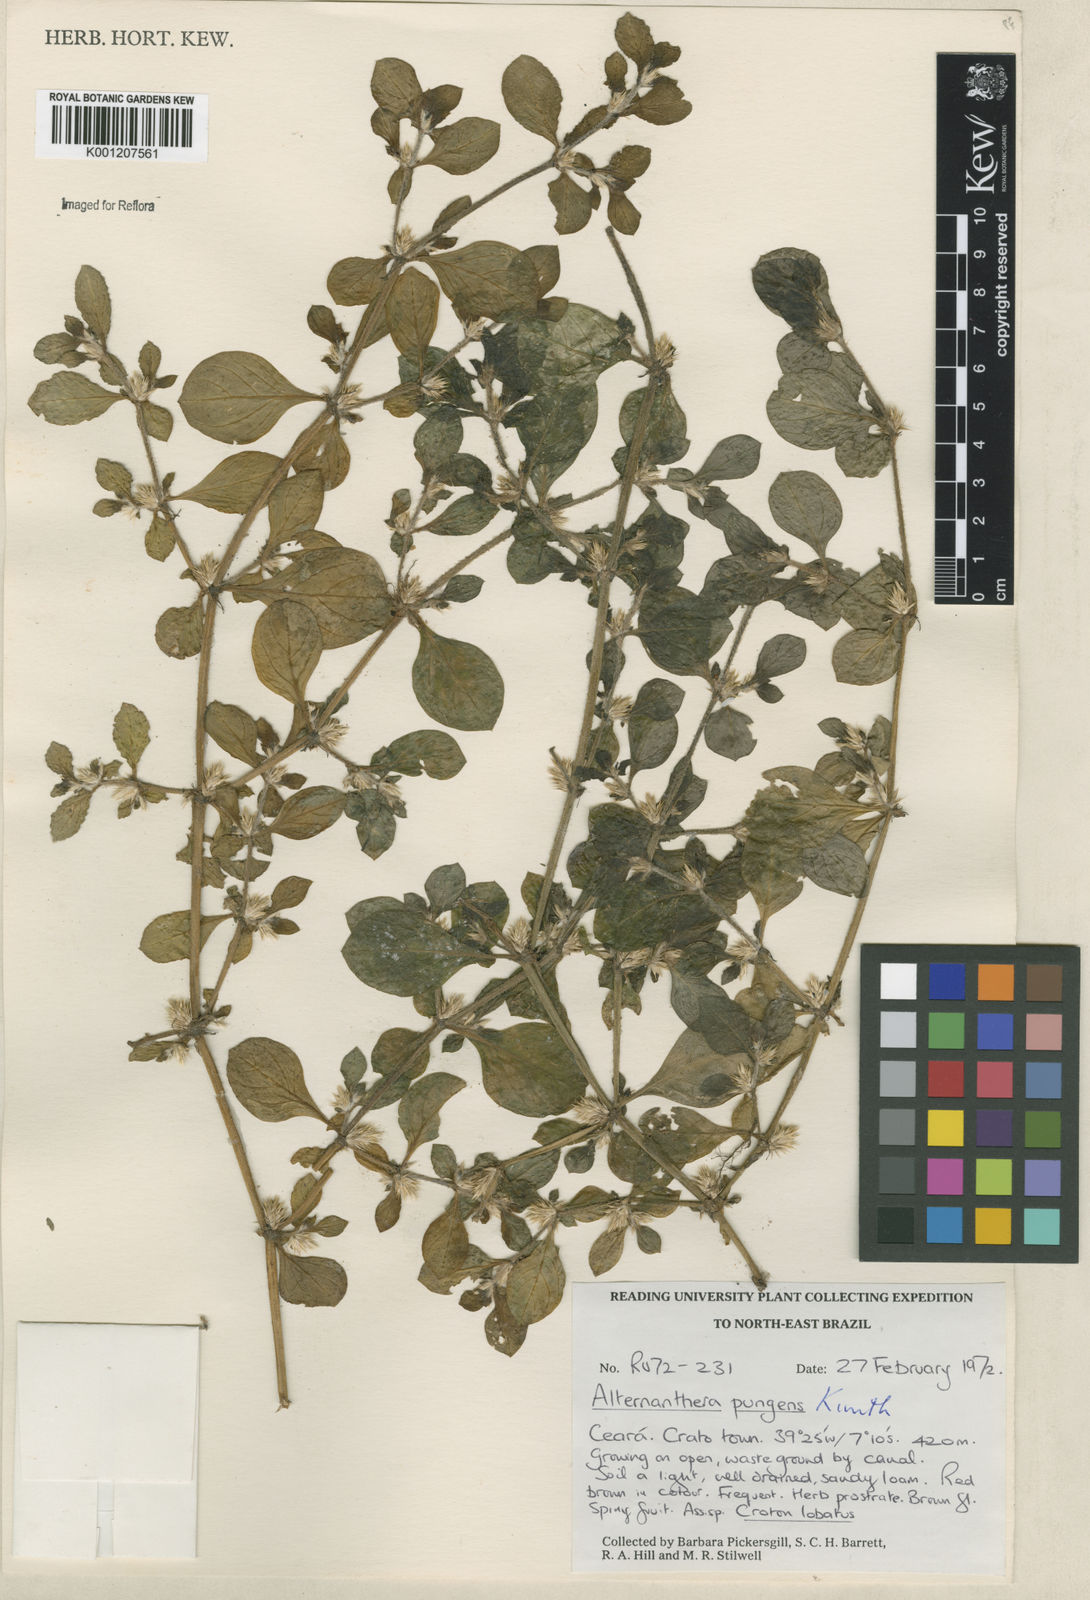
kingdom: Plantae
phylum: Tracheophyta
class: Magnoliopsida
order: Caryophyllales
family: Amaranthaceae
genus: Alternanthera
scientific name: Alternanthera pungens
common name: Khakiweed
